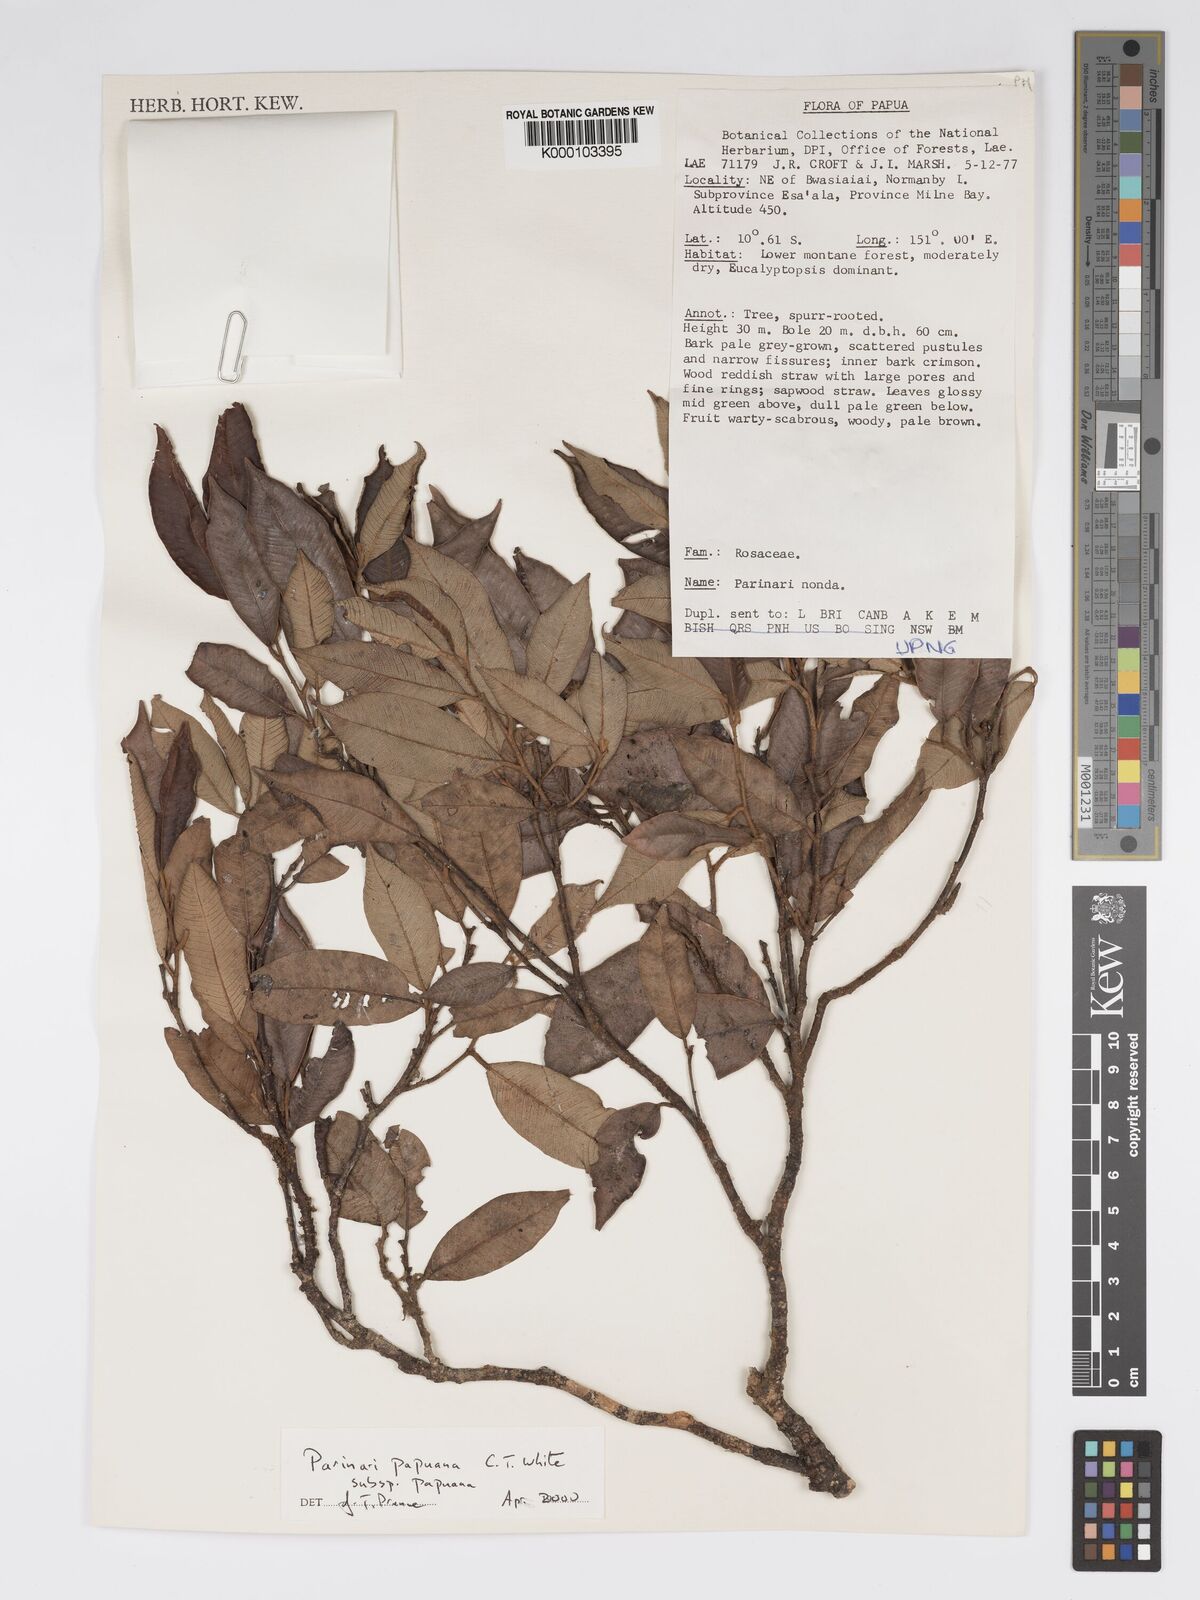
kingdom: Plantae
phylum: Tracheophyta
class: Magnoliopsida
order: Malpighiales
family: Chrysobalanaceae
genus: Parinari
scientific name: Parinari papuana
